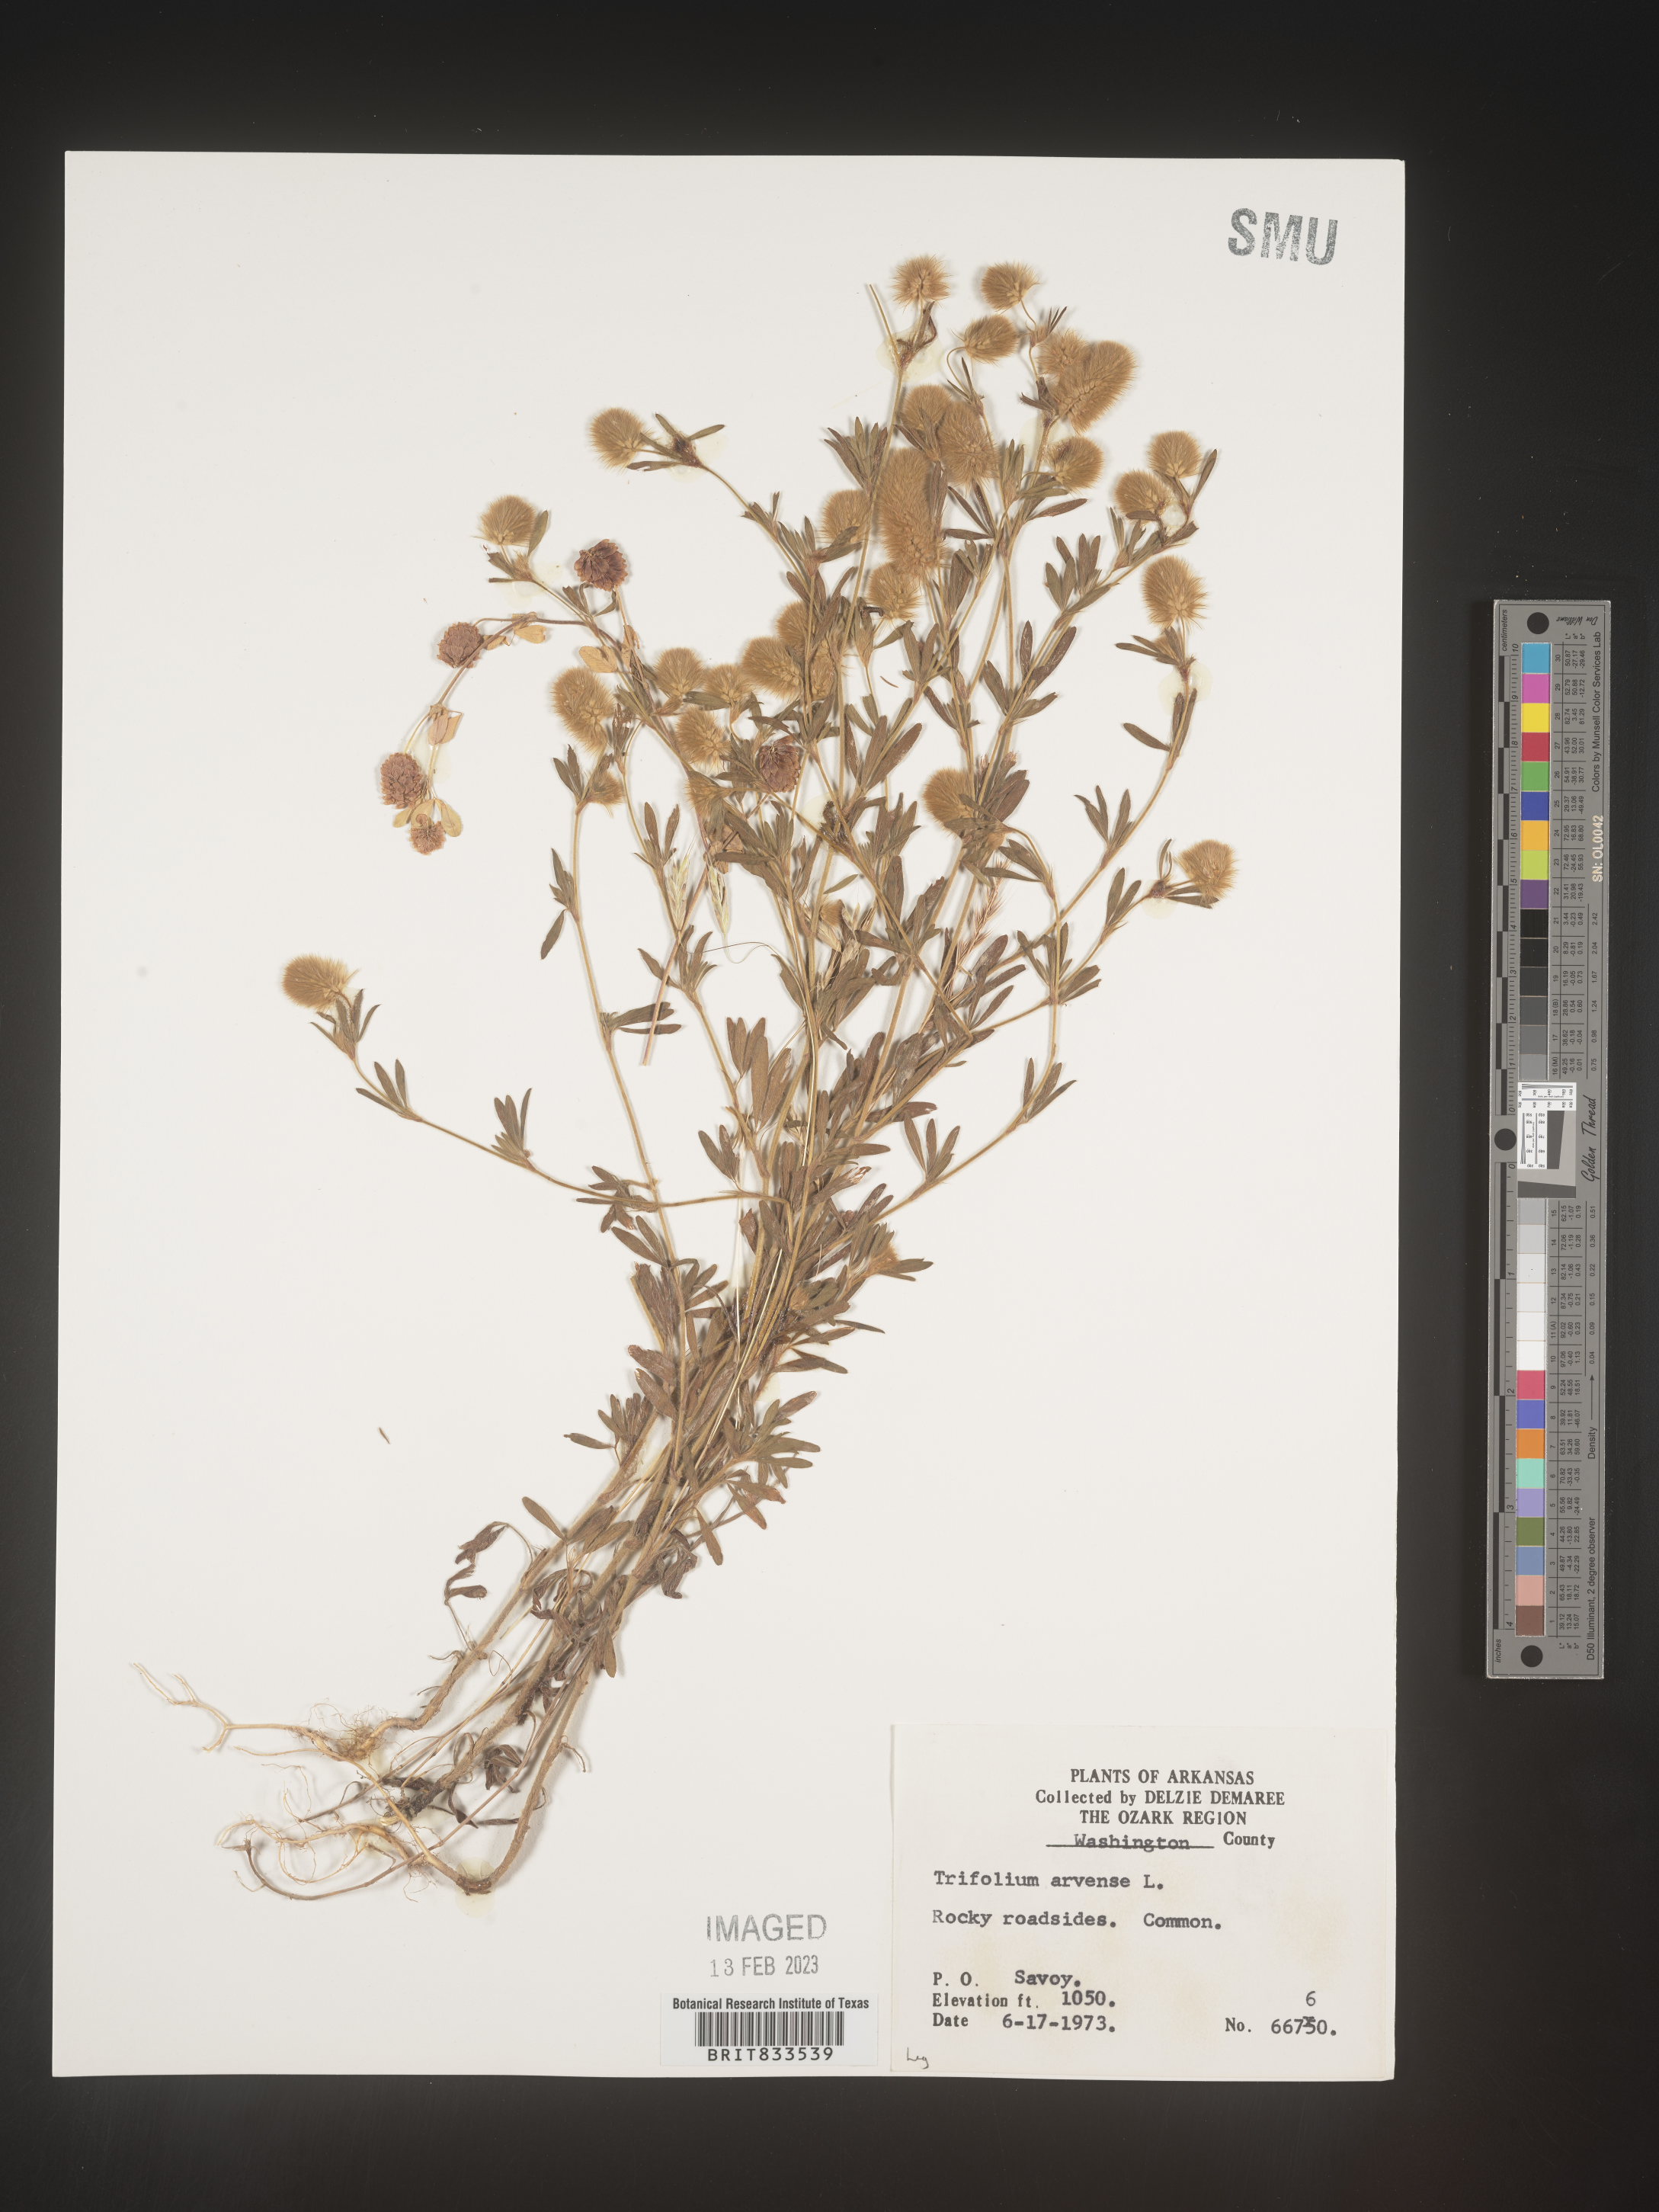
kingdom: Plantae
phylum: Tracheophyta
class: Magnoliopsida
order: Fabales
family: Fabaceae
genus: Trifolium
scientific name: Trifolium arvense
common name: Hare's-foot clover
